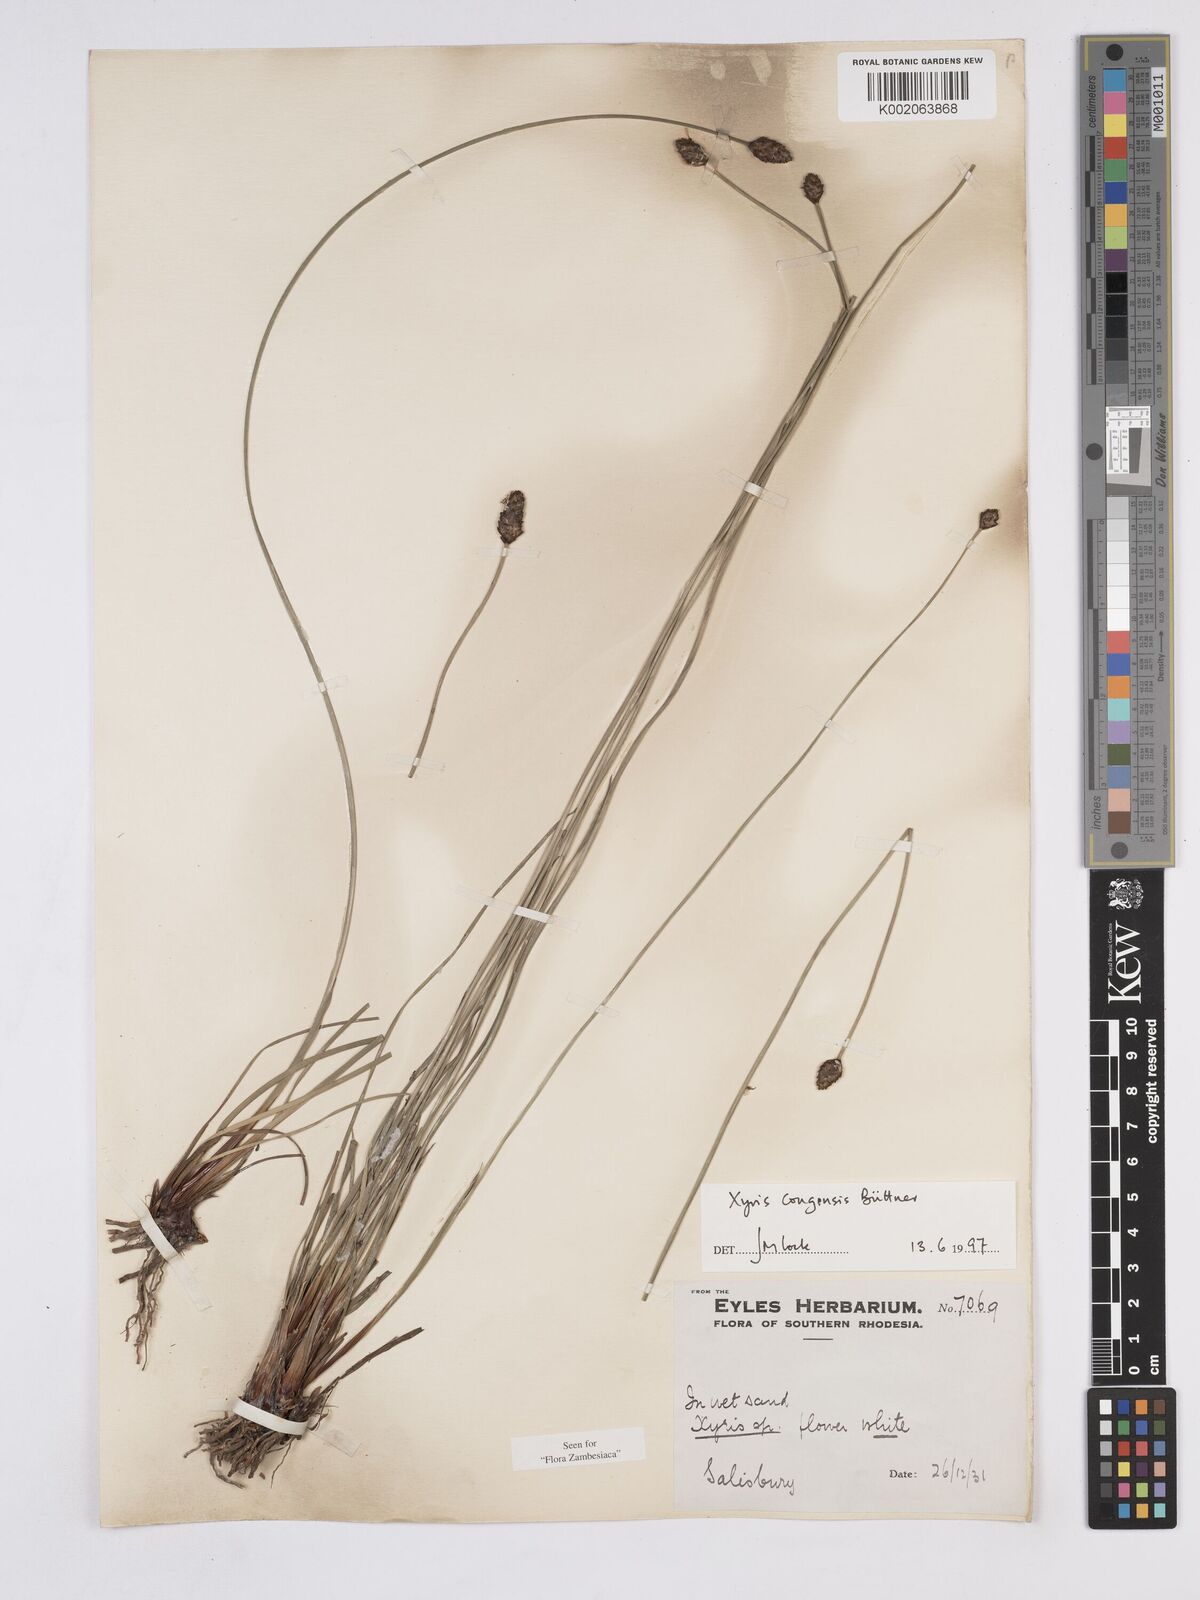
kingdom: Plantae
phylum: Tracheophyta
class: Liliopsida
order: Poales
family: Xyridaceae
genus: Xyris
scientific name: Xyris congensis
